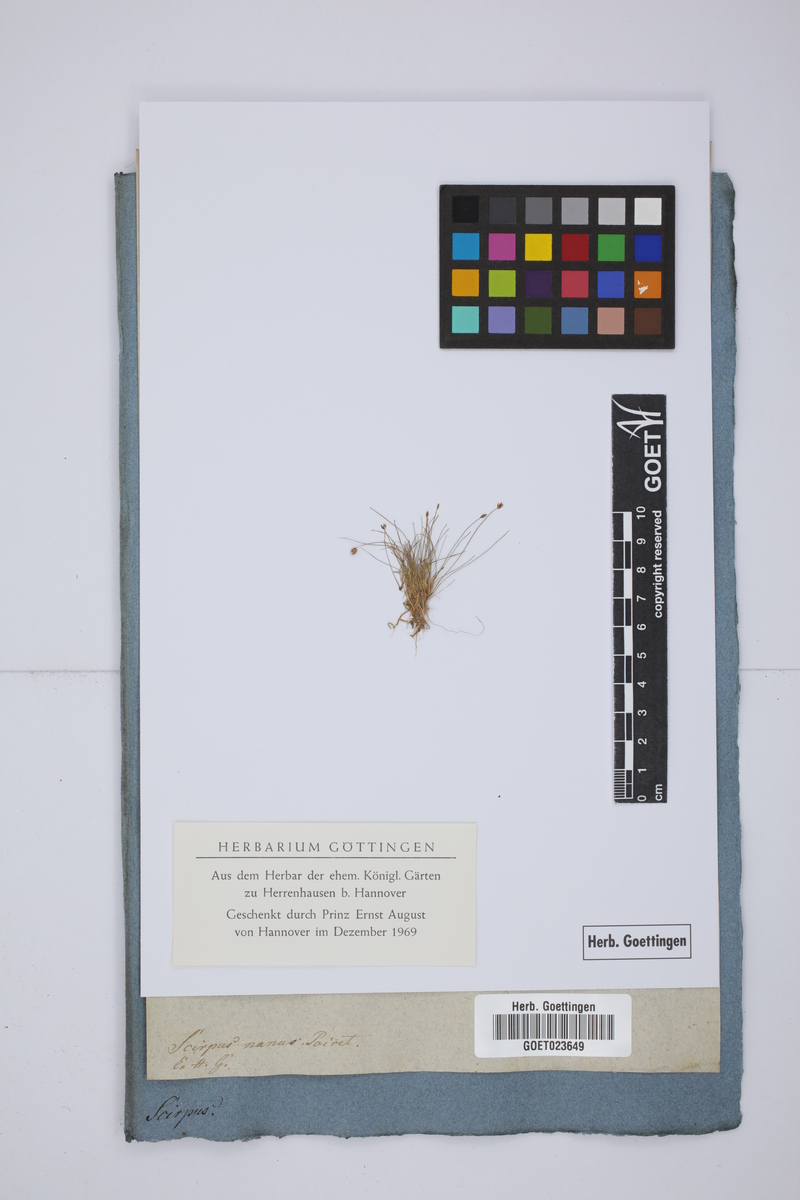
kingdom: Plantae
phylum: Tracheophyta
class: Liliopsida
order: Poales
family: Cyperaceae
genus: Fimbristylis
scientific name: Fimbristylis argentea
